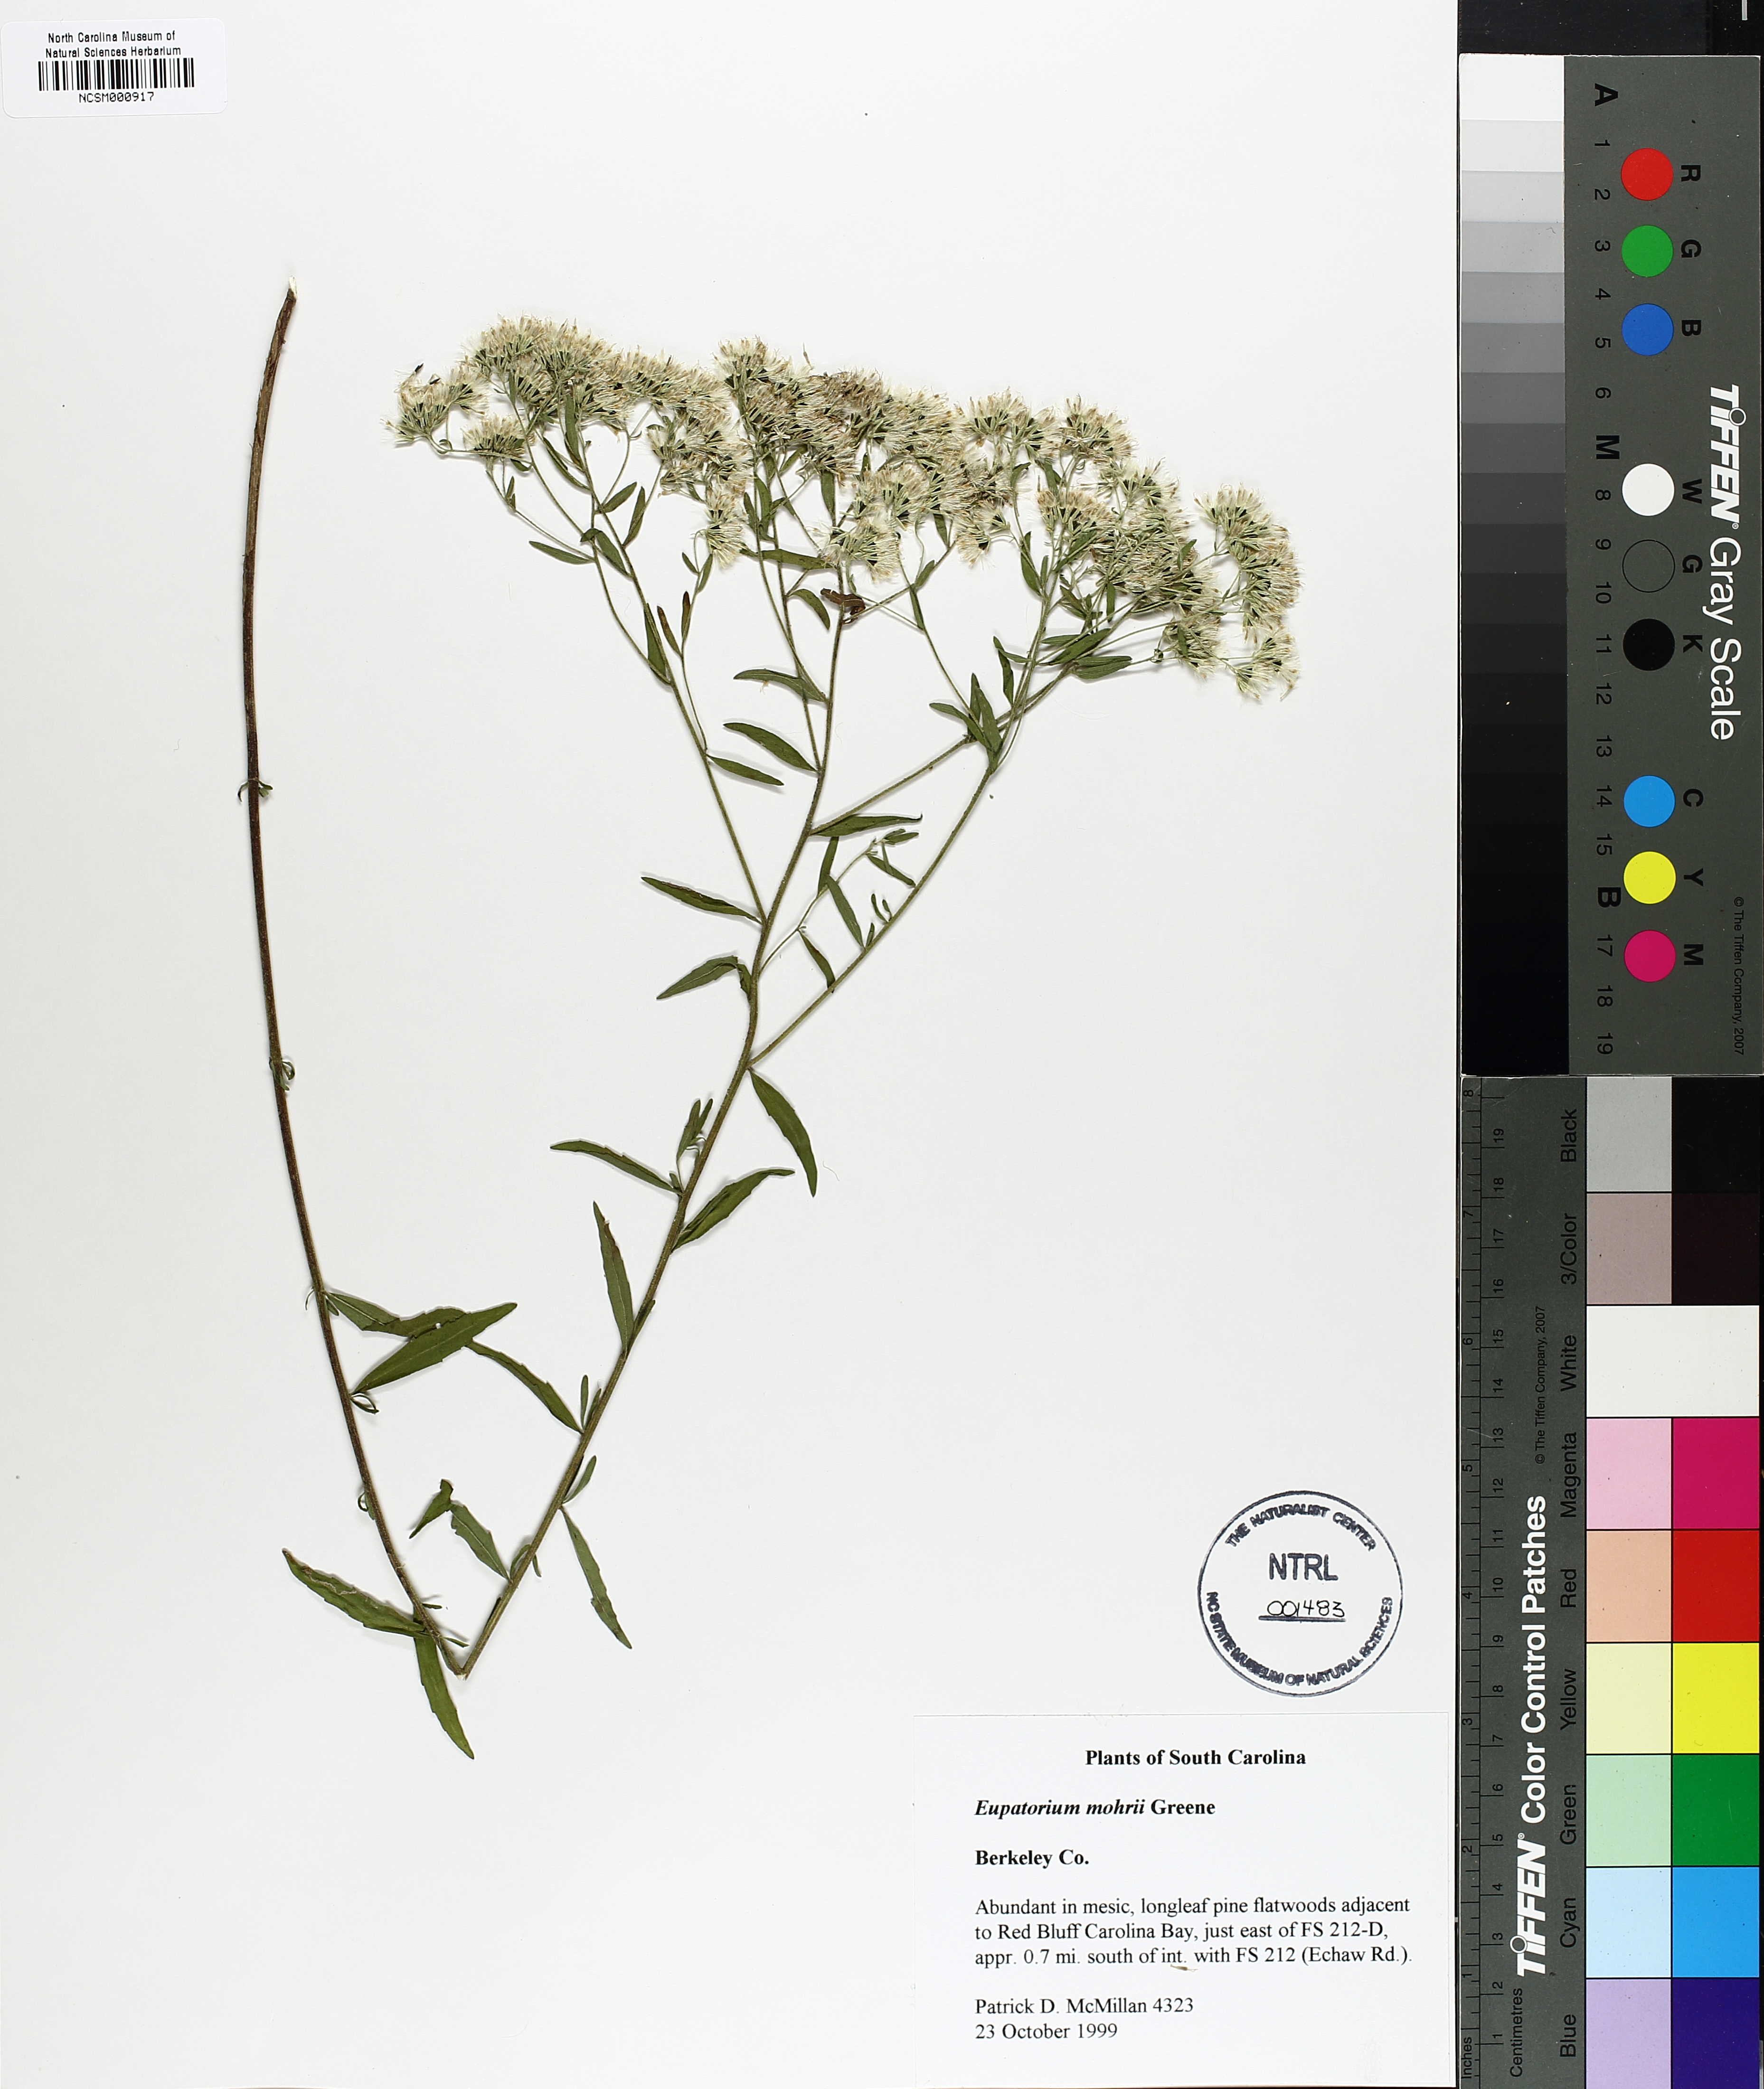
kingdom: Plantae
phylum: Tracheophyta
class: Magnoliopsida
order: Asterales
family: Asteraceae
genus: Eupatorium
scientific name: Eupatorium mohrii
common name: Mohr's thoroughwort
